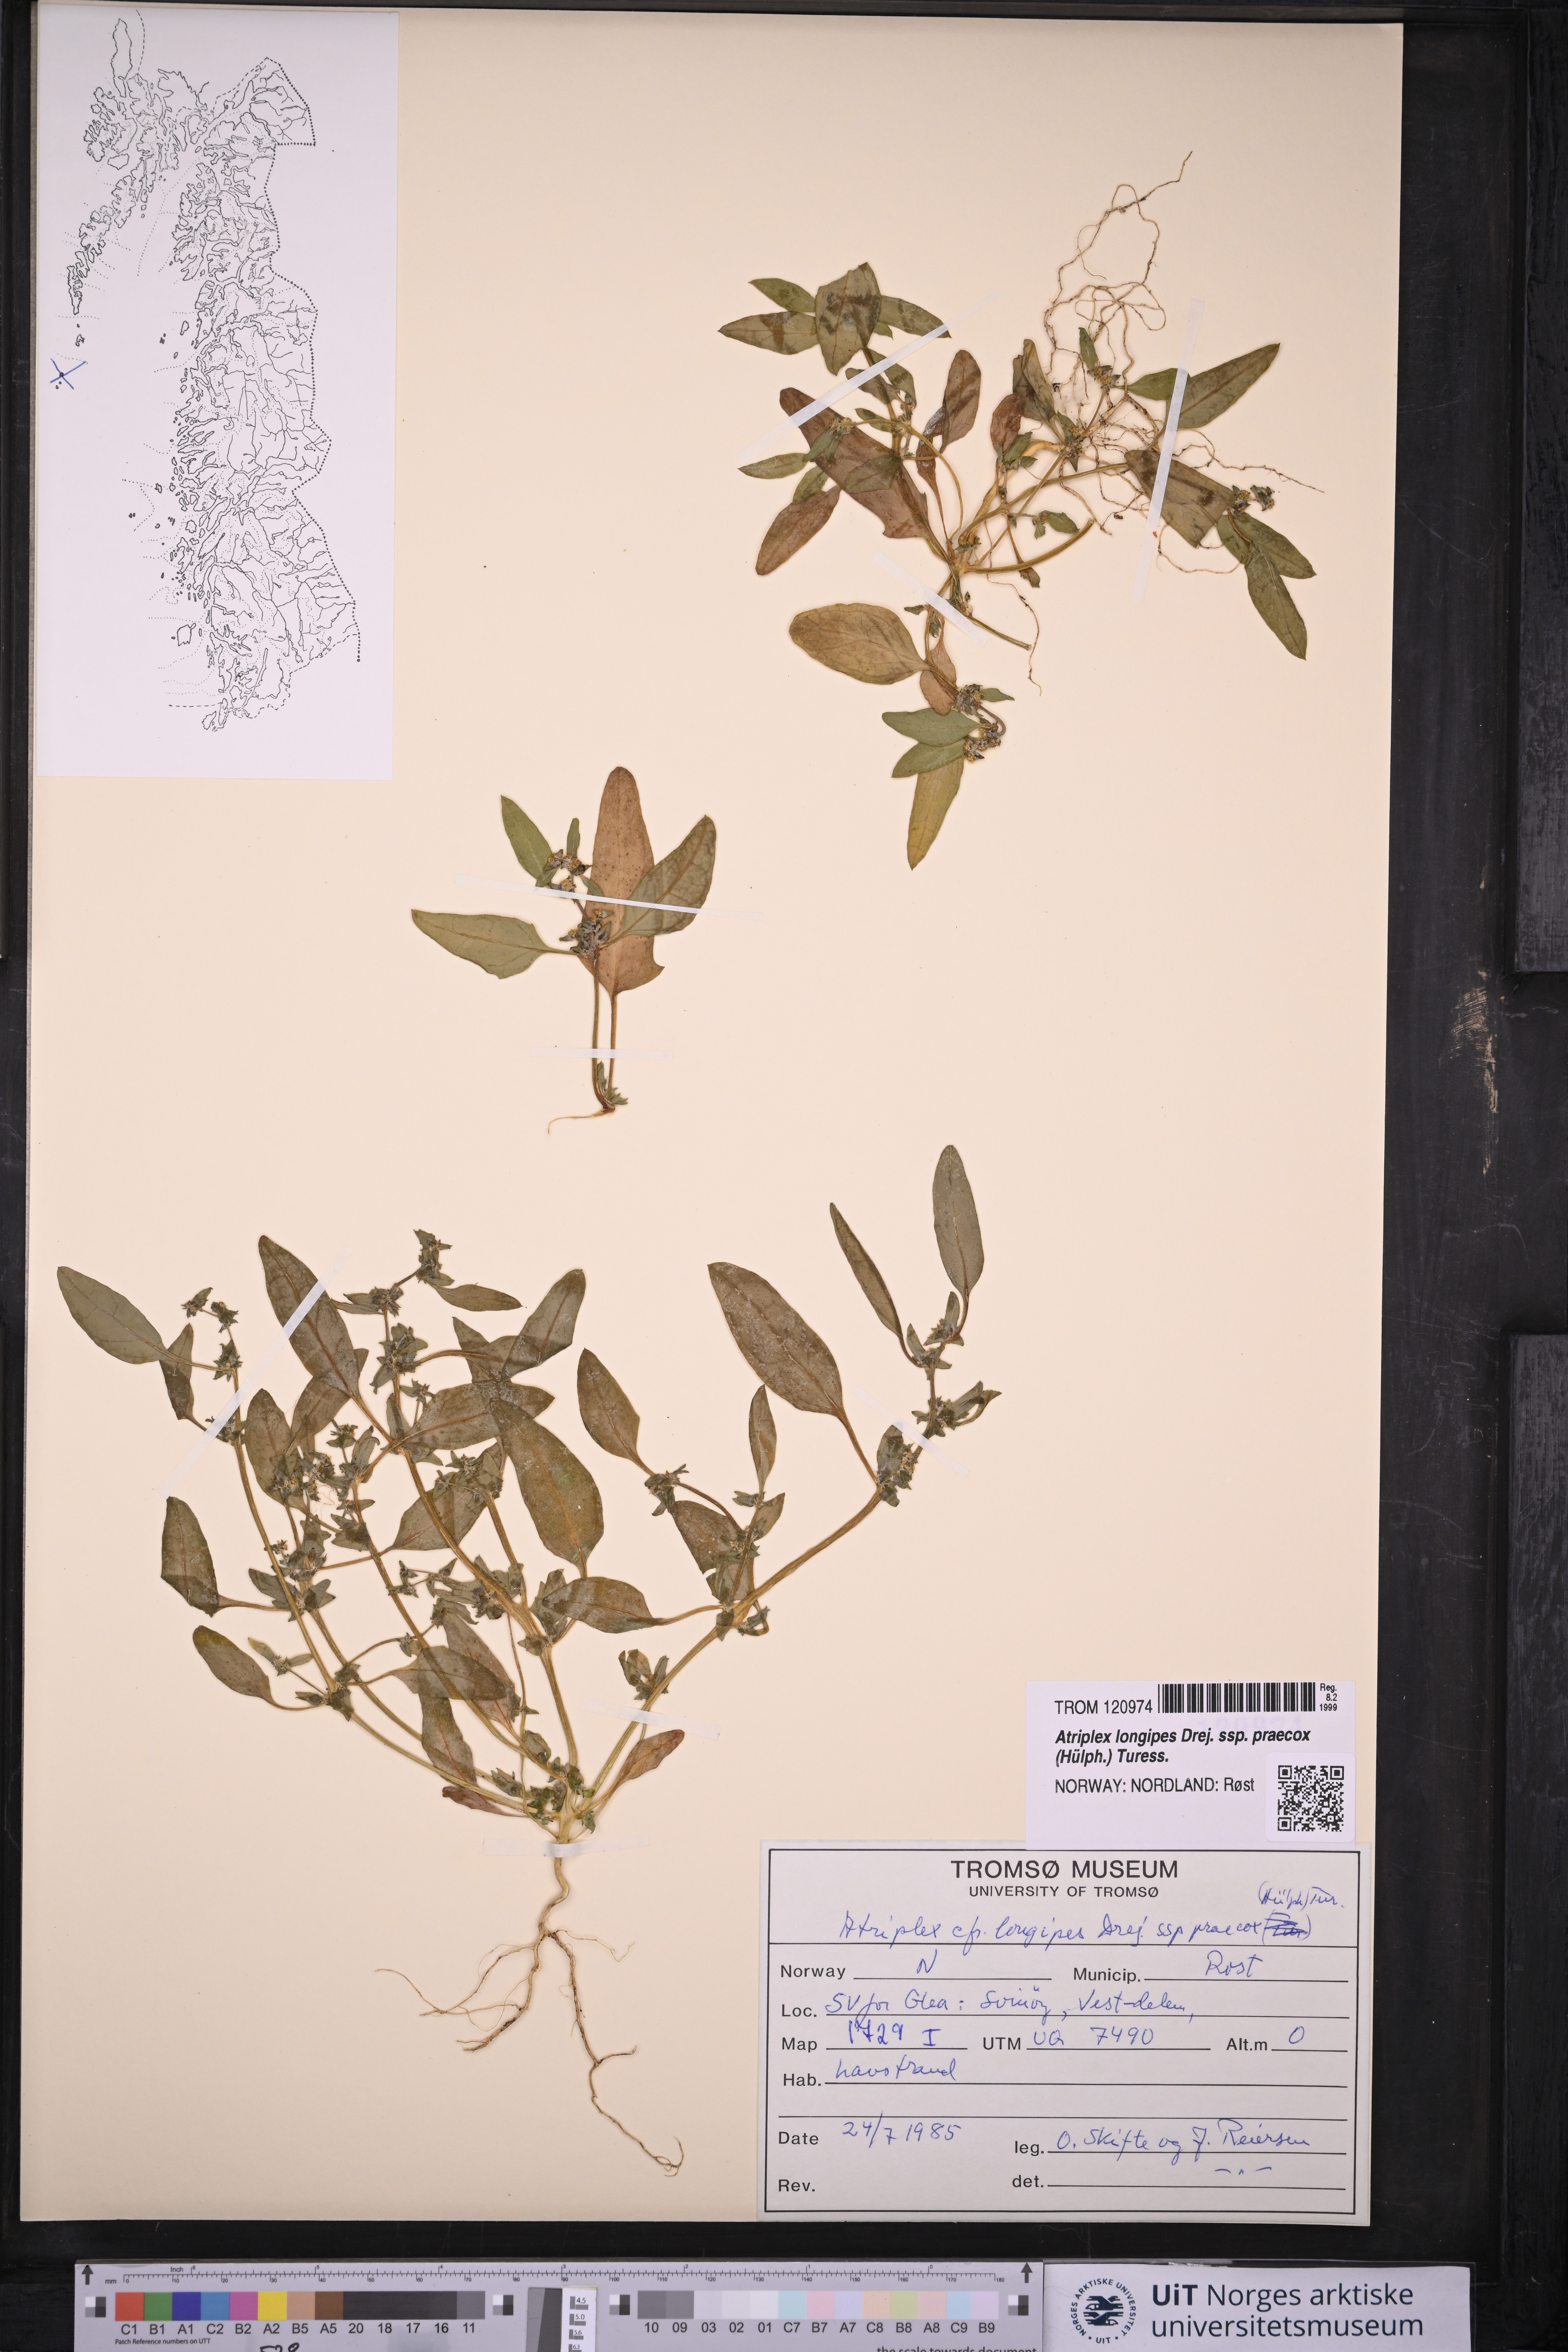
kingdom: Plantae
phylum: Tracheophyta
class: Magnoliopsida
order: Caryophyllales
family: Amaranthaceae
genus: Atriplex
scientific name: Atriplex praecox
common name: Early orache
